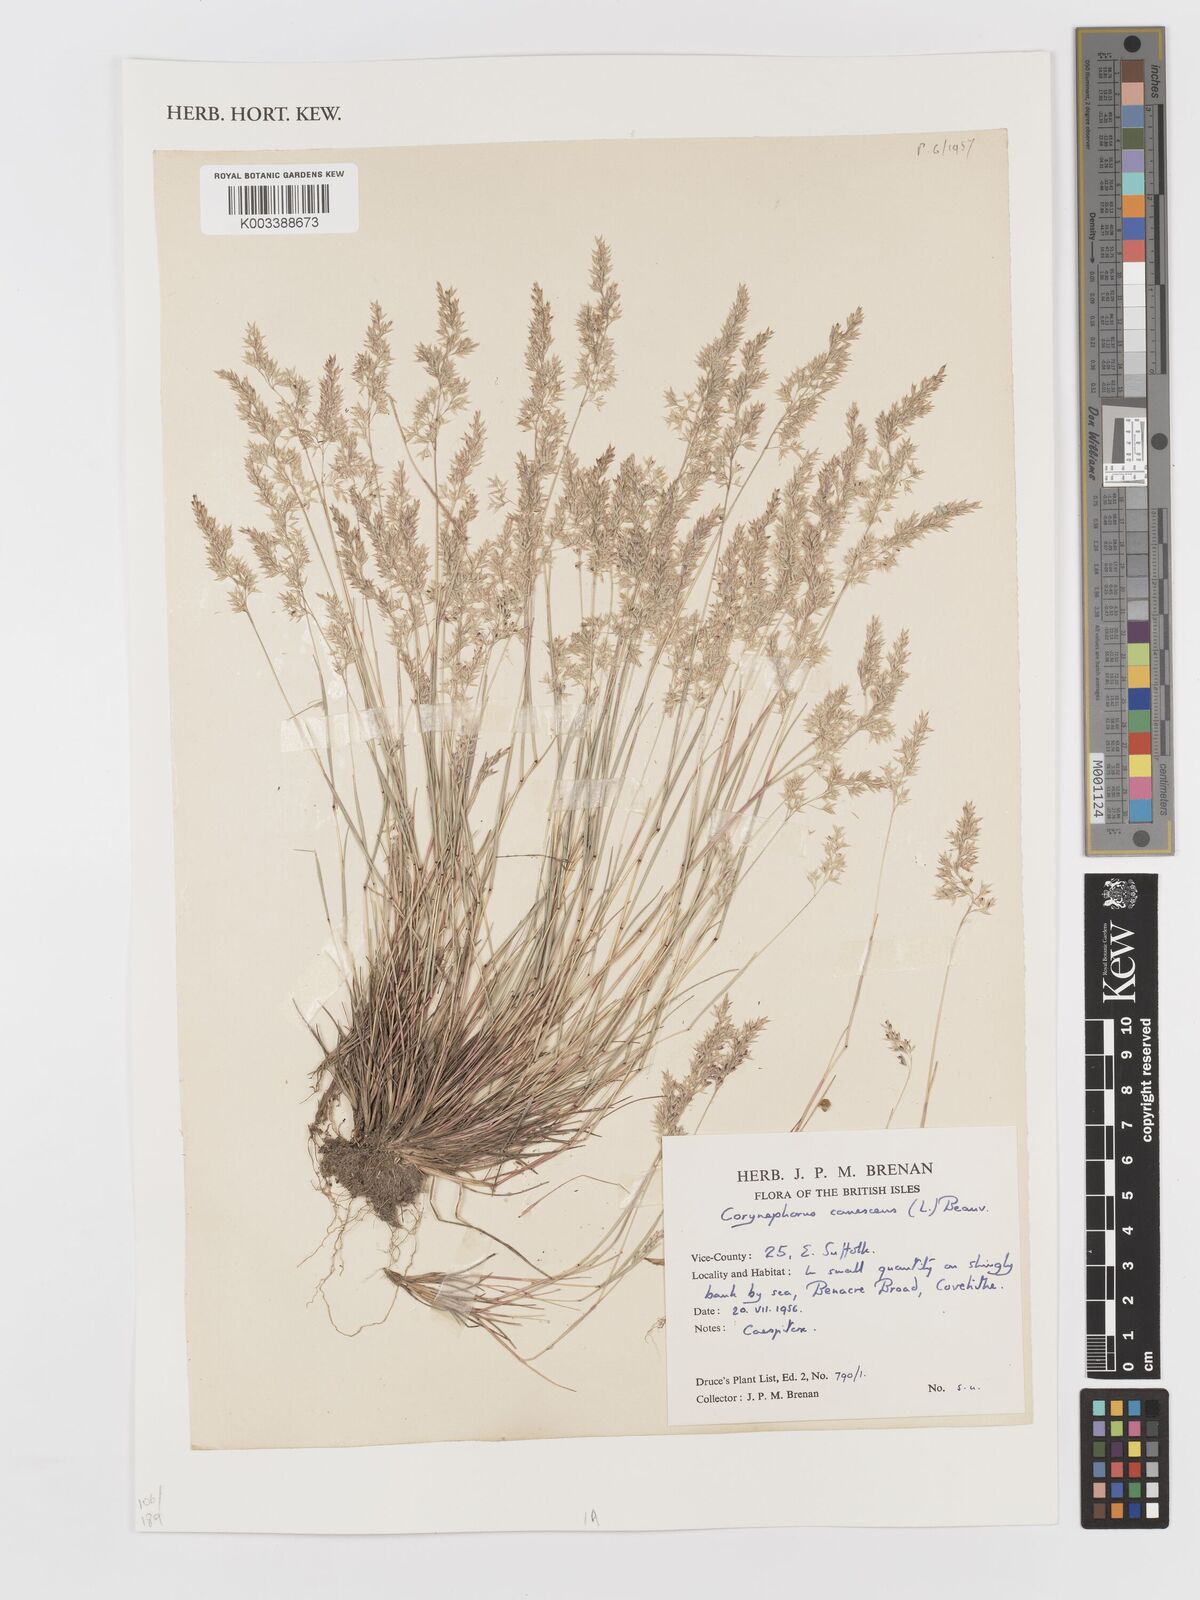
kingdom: Plantae
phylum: Tracheophyta
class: Liliopsida
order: Poales
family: Poaceae
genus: Corynephorus
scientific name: Corynephorus canescens
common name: Grey hair-grass
